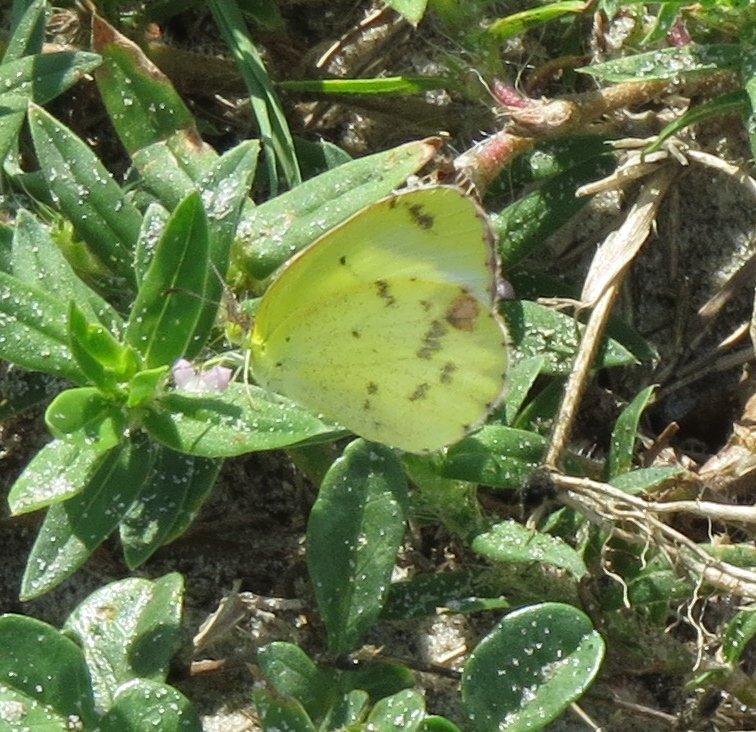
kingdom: Animalia
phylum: Arthropoda
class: Insecta
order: Lepidoptera
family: Pieridae
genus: Pyrisitia
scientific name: Pyrisitia lisa
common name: Little Yellow
